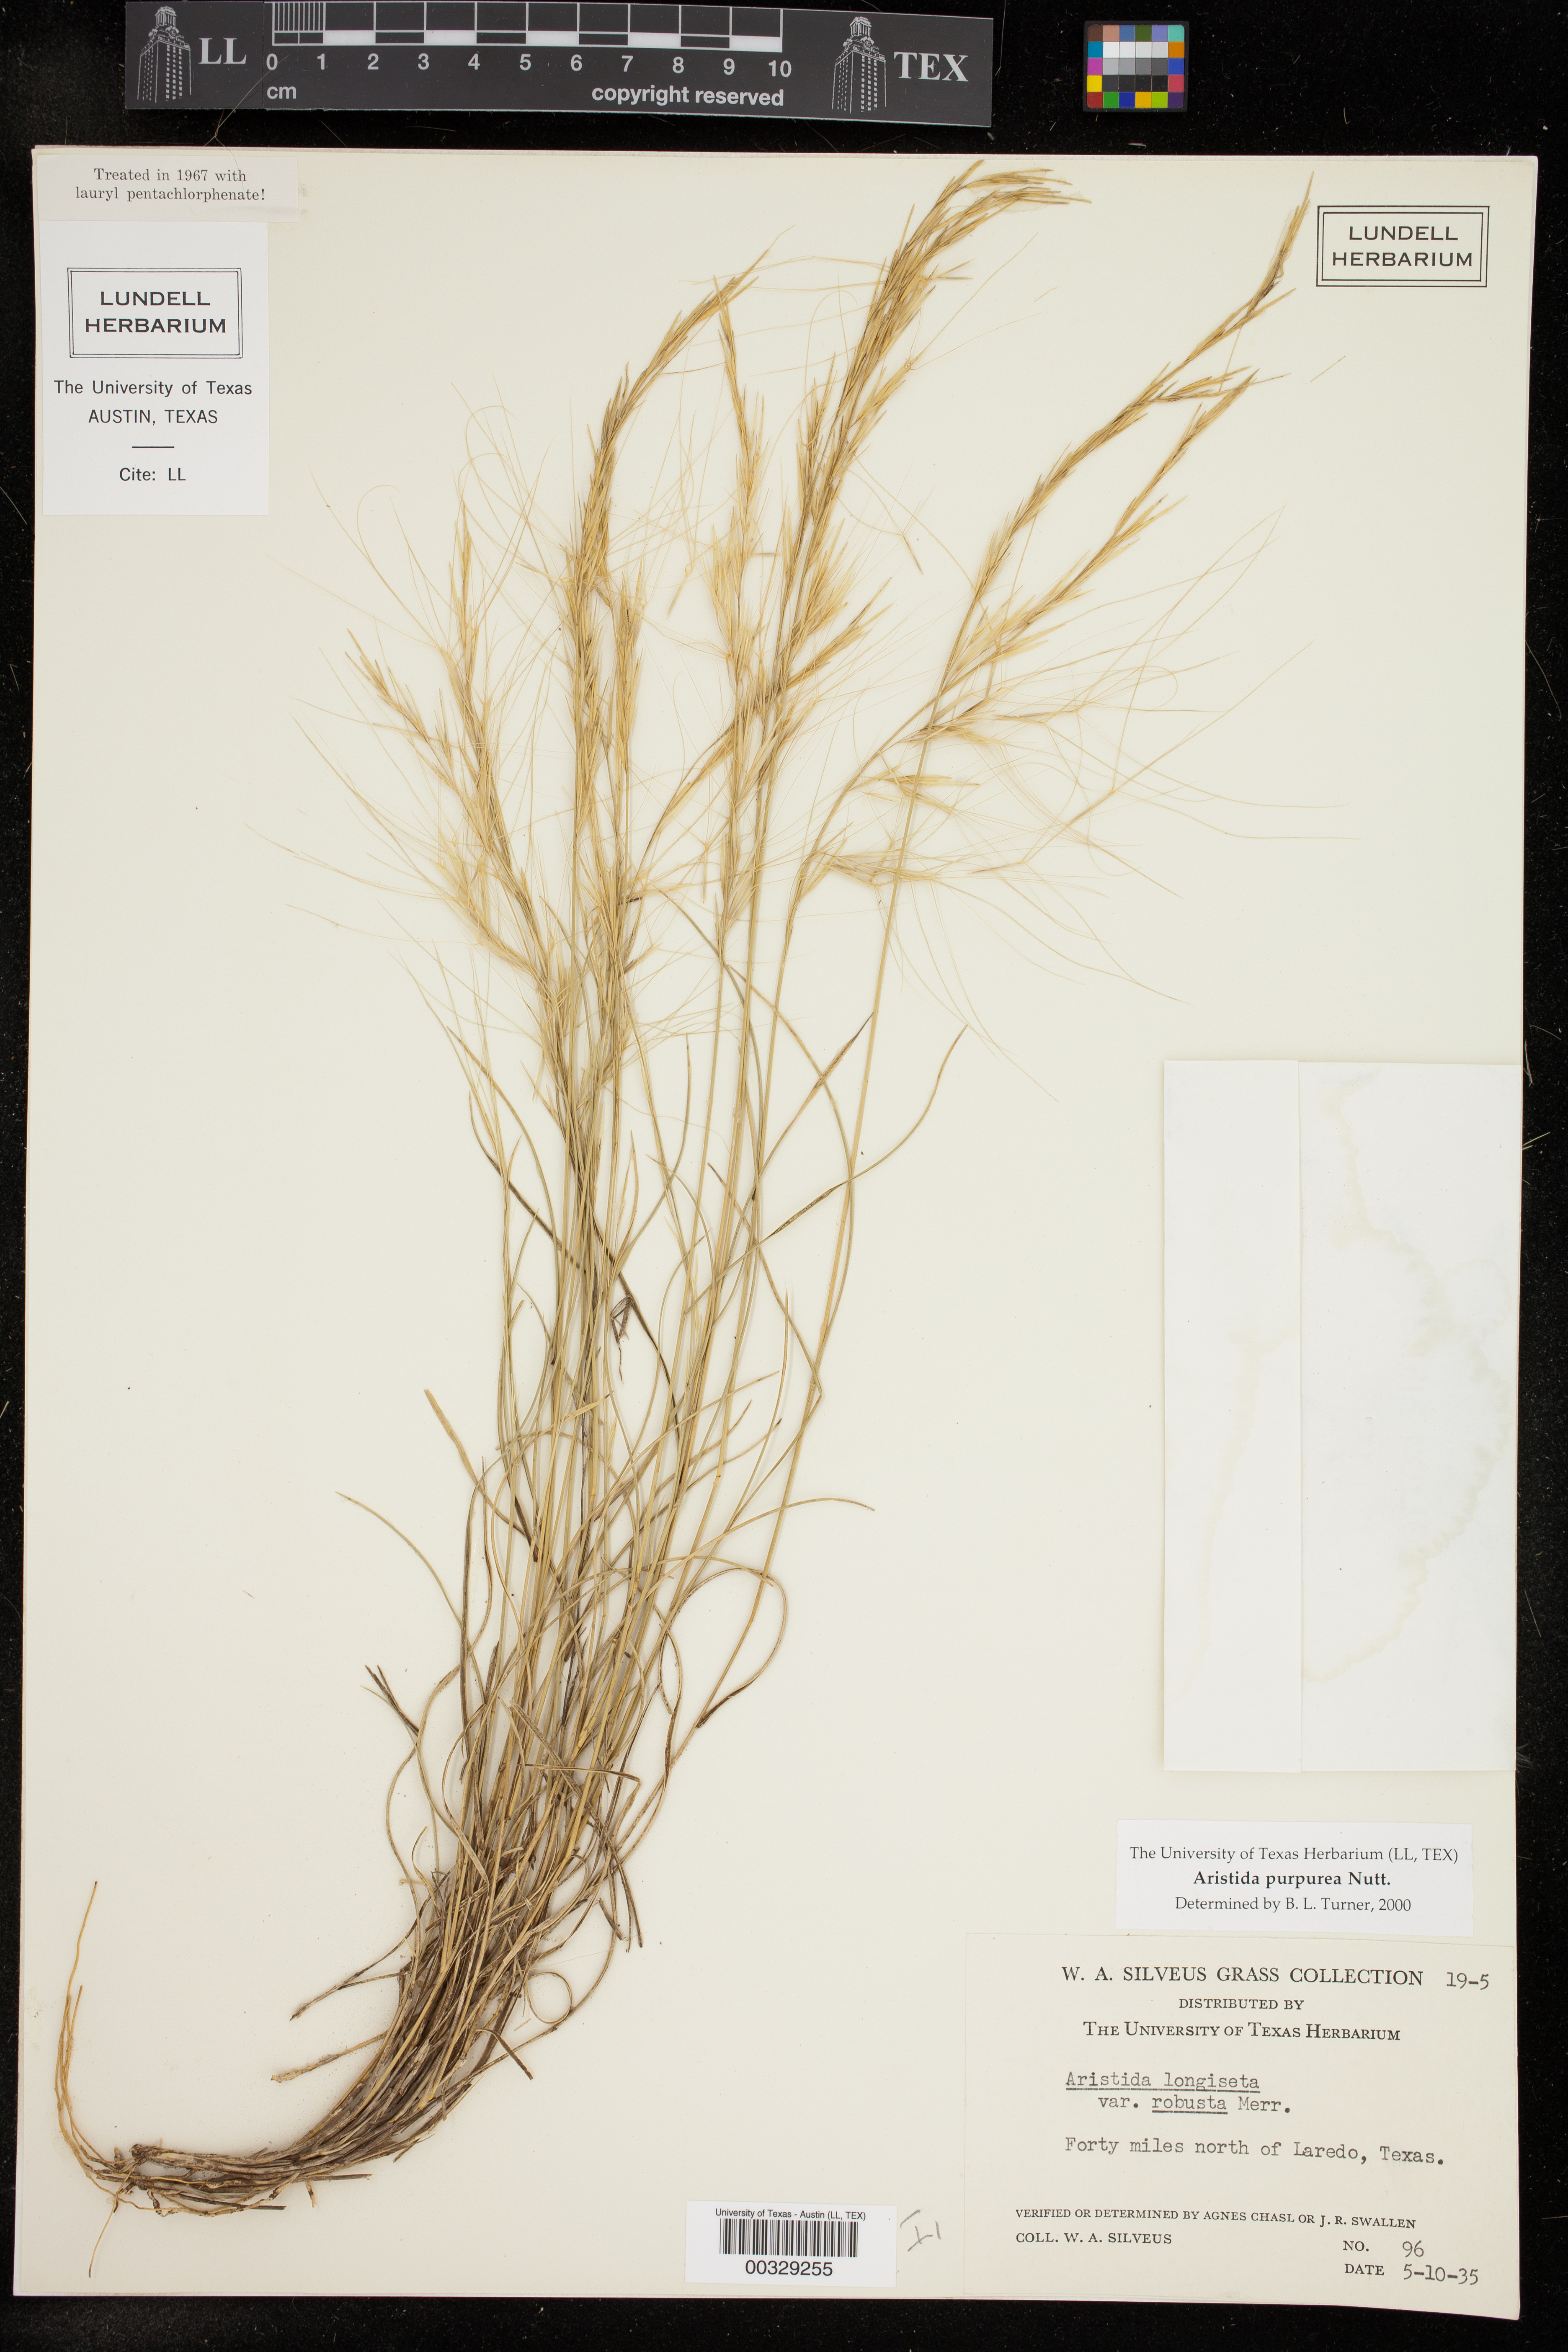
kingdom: Plantae
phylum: Tracheophyta
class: Liliopsida
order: Poales
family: Poaceae
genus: Aristida
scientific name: Aristida purpurea
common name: Purple threeawn
